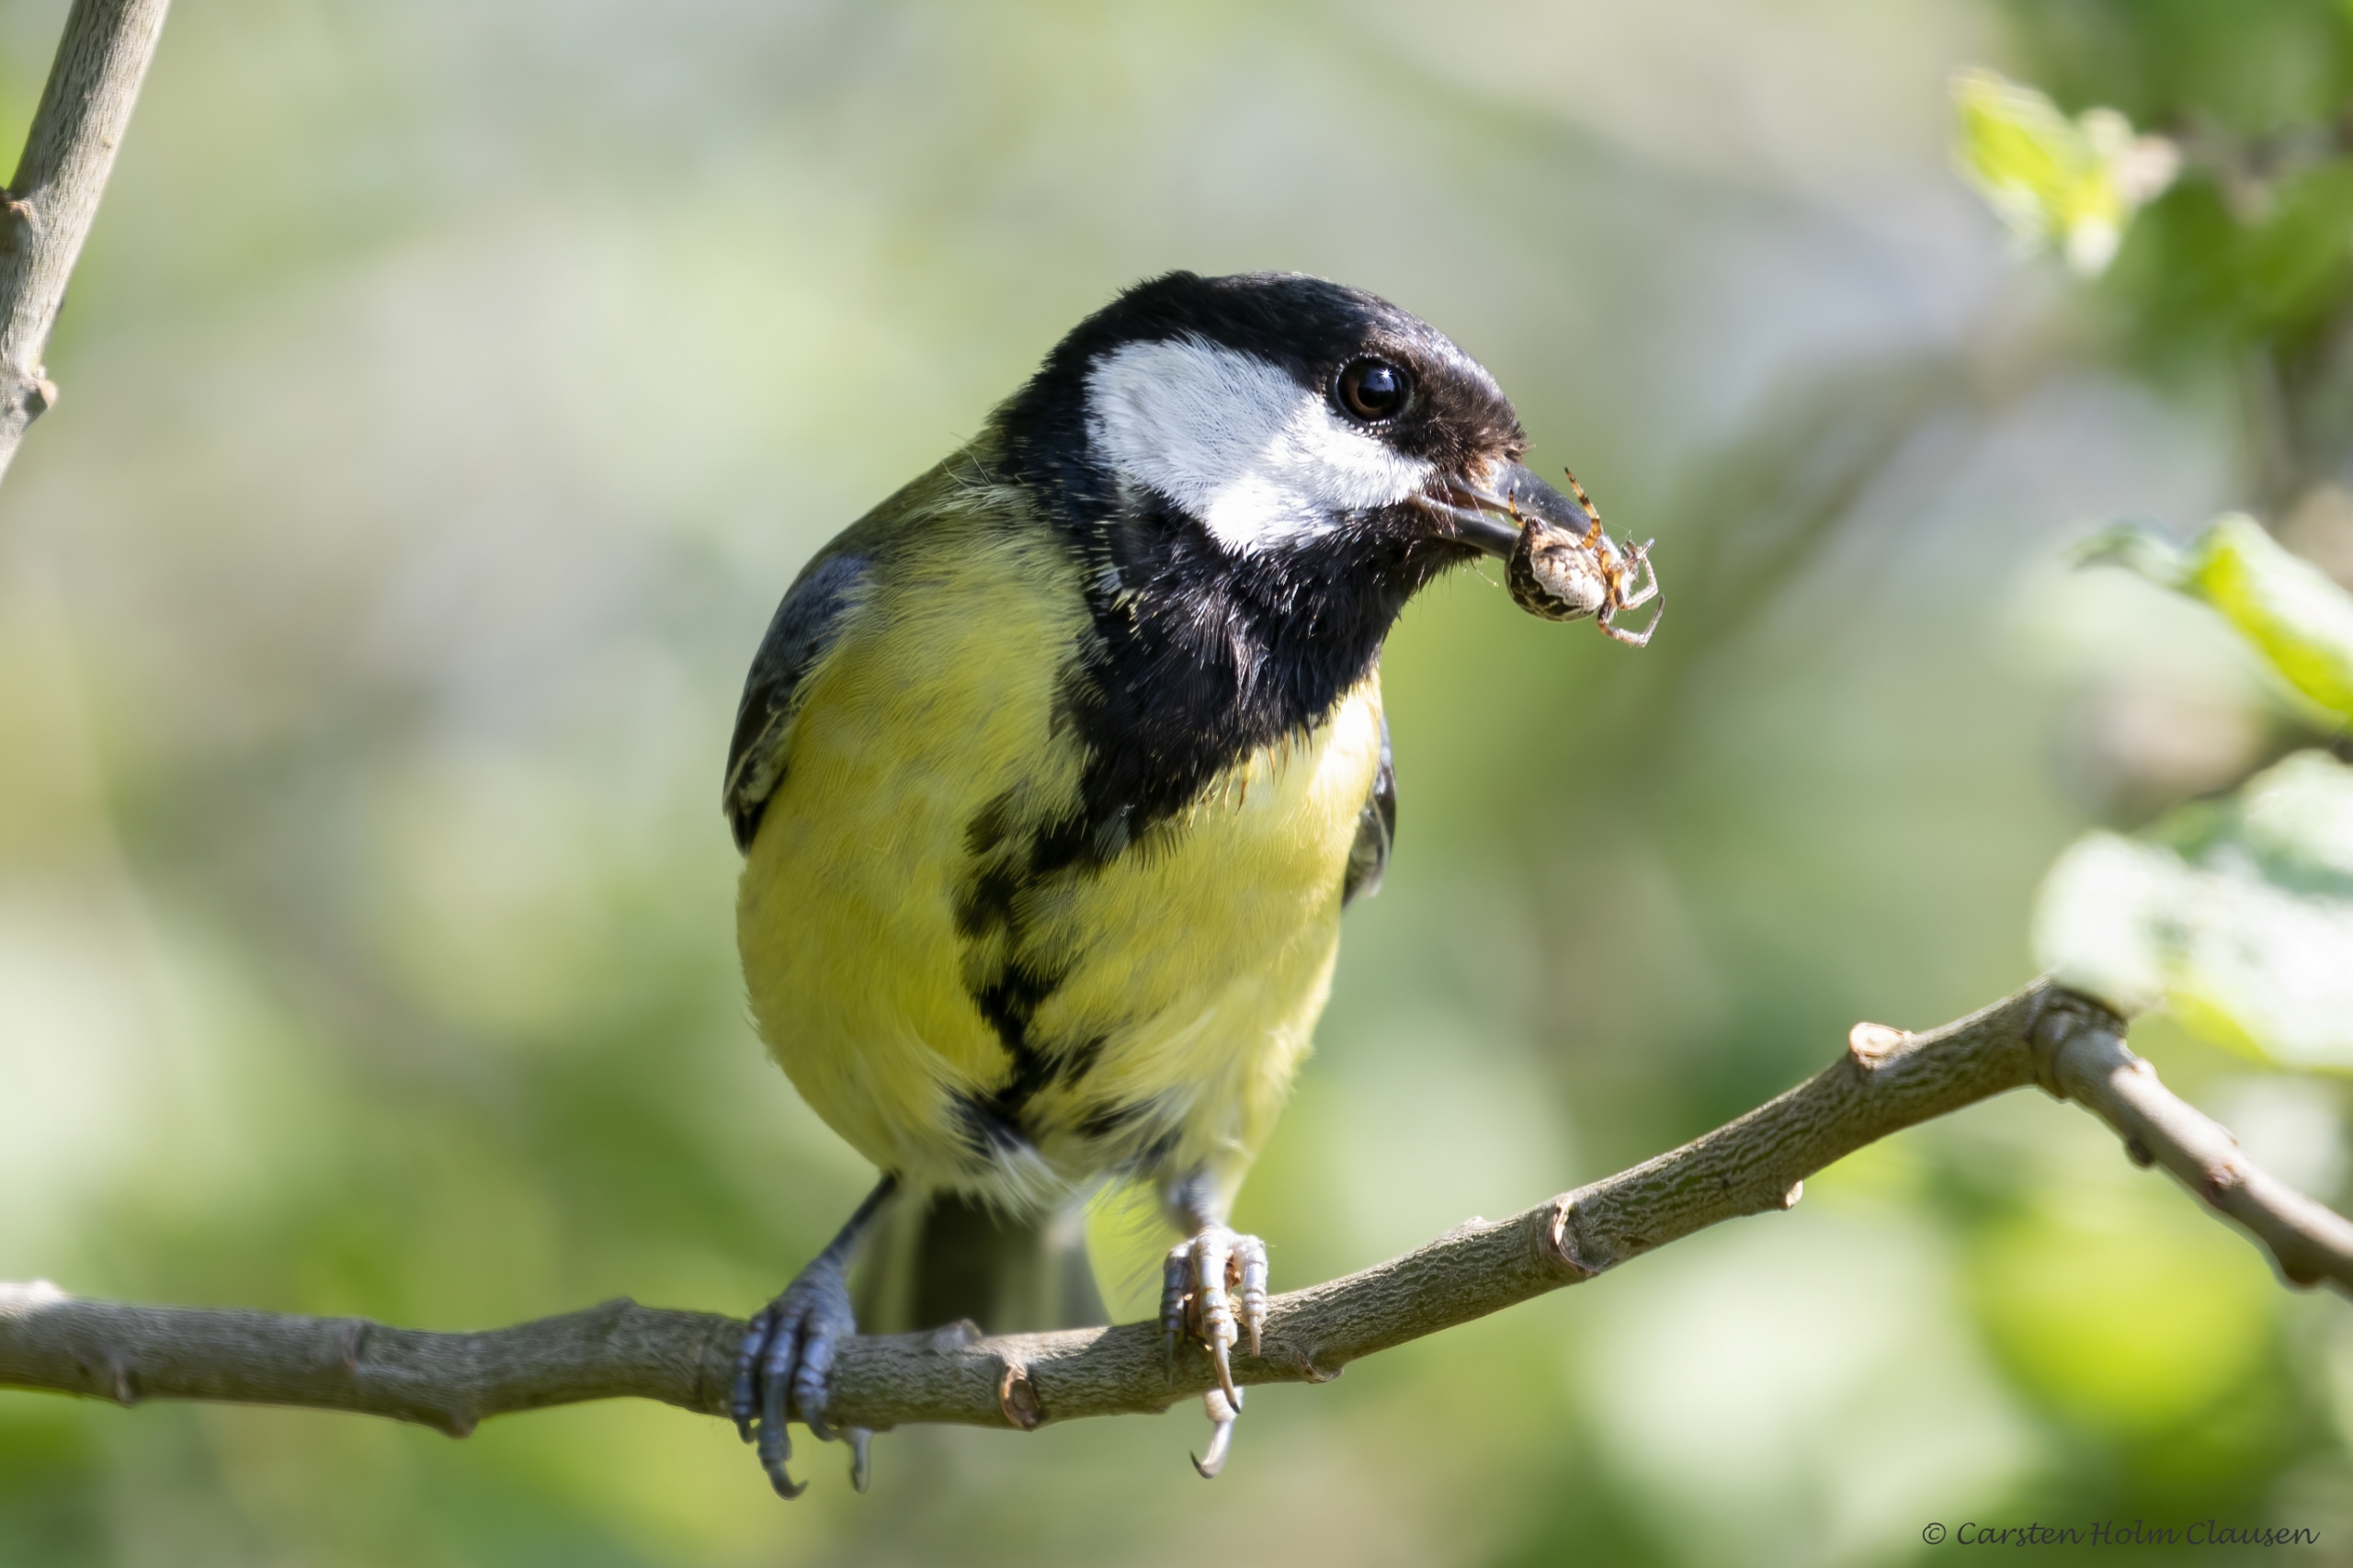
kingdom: Animalia
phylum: Chordata
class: Aves
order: Passeriformes
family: Paridae
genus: Parus
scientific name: Parus major
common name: Musvit
